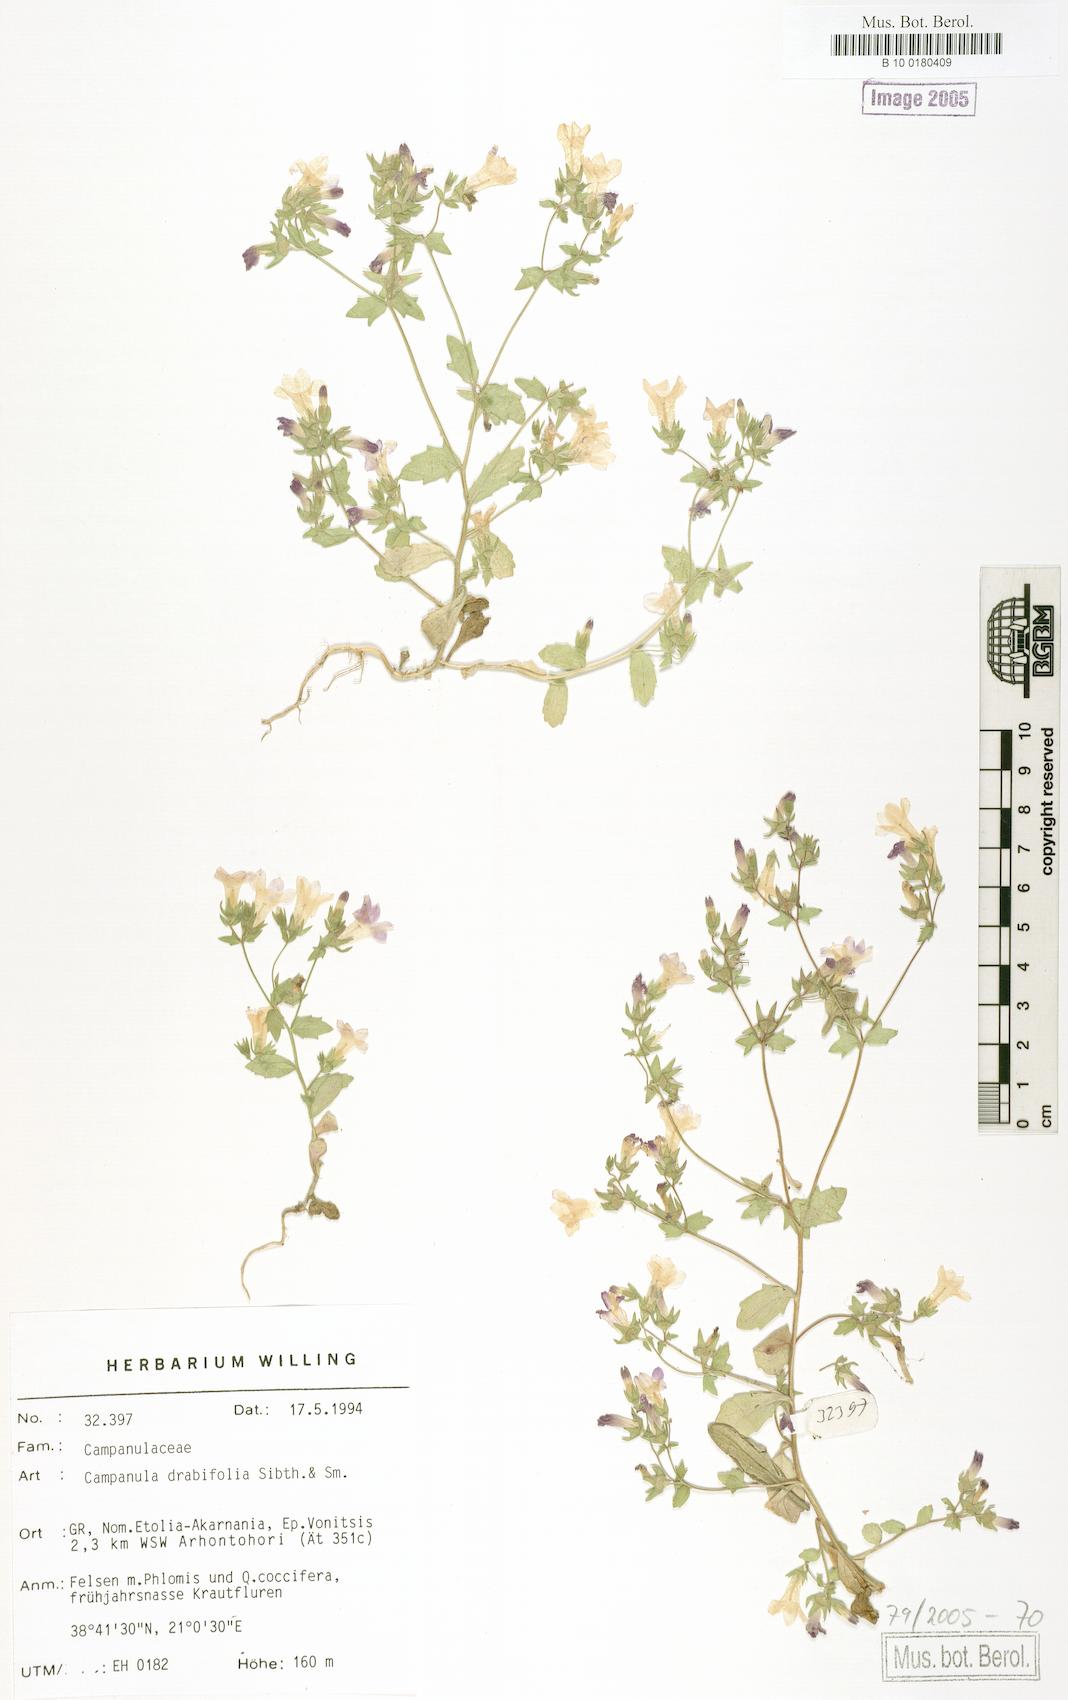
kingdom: Plantae
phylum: Tracheophyta
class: Magnoliopsida
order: Asterales
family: Campanulaceae
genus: Campanula
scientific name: Campanula drabifolia
